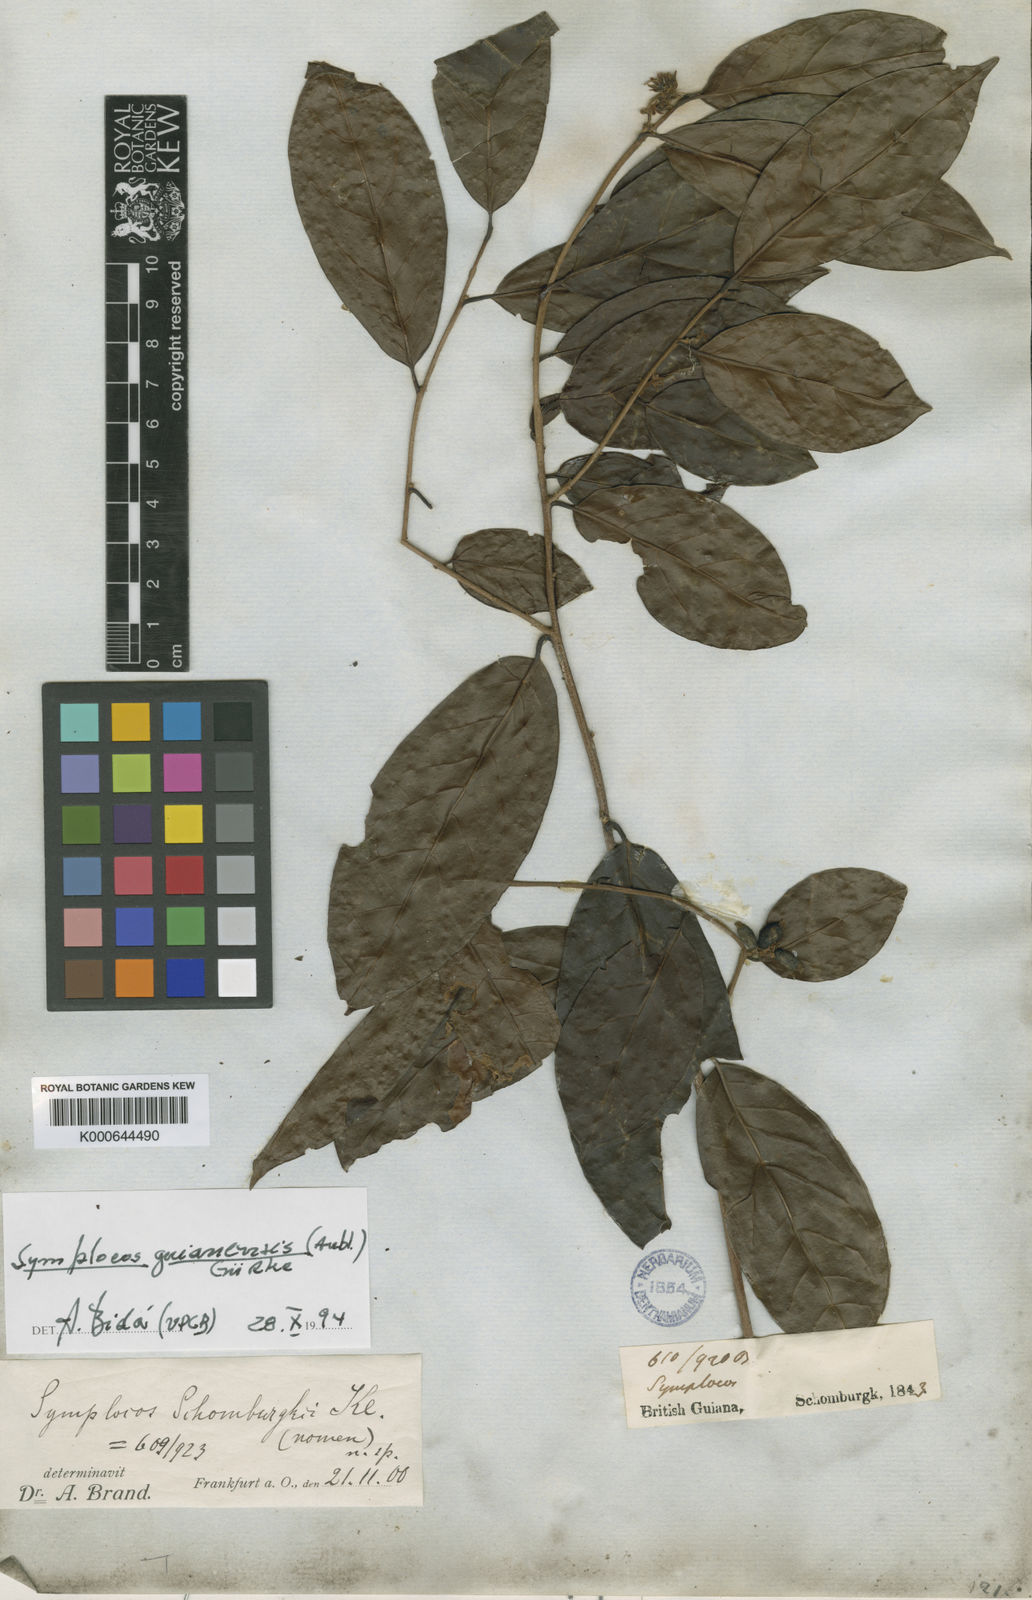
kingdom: Plantae
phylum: Tracheophyta
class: Magnoliopsida
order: Ericales
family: Symplocaceae
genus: Symplocos
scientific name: Symplocos
